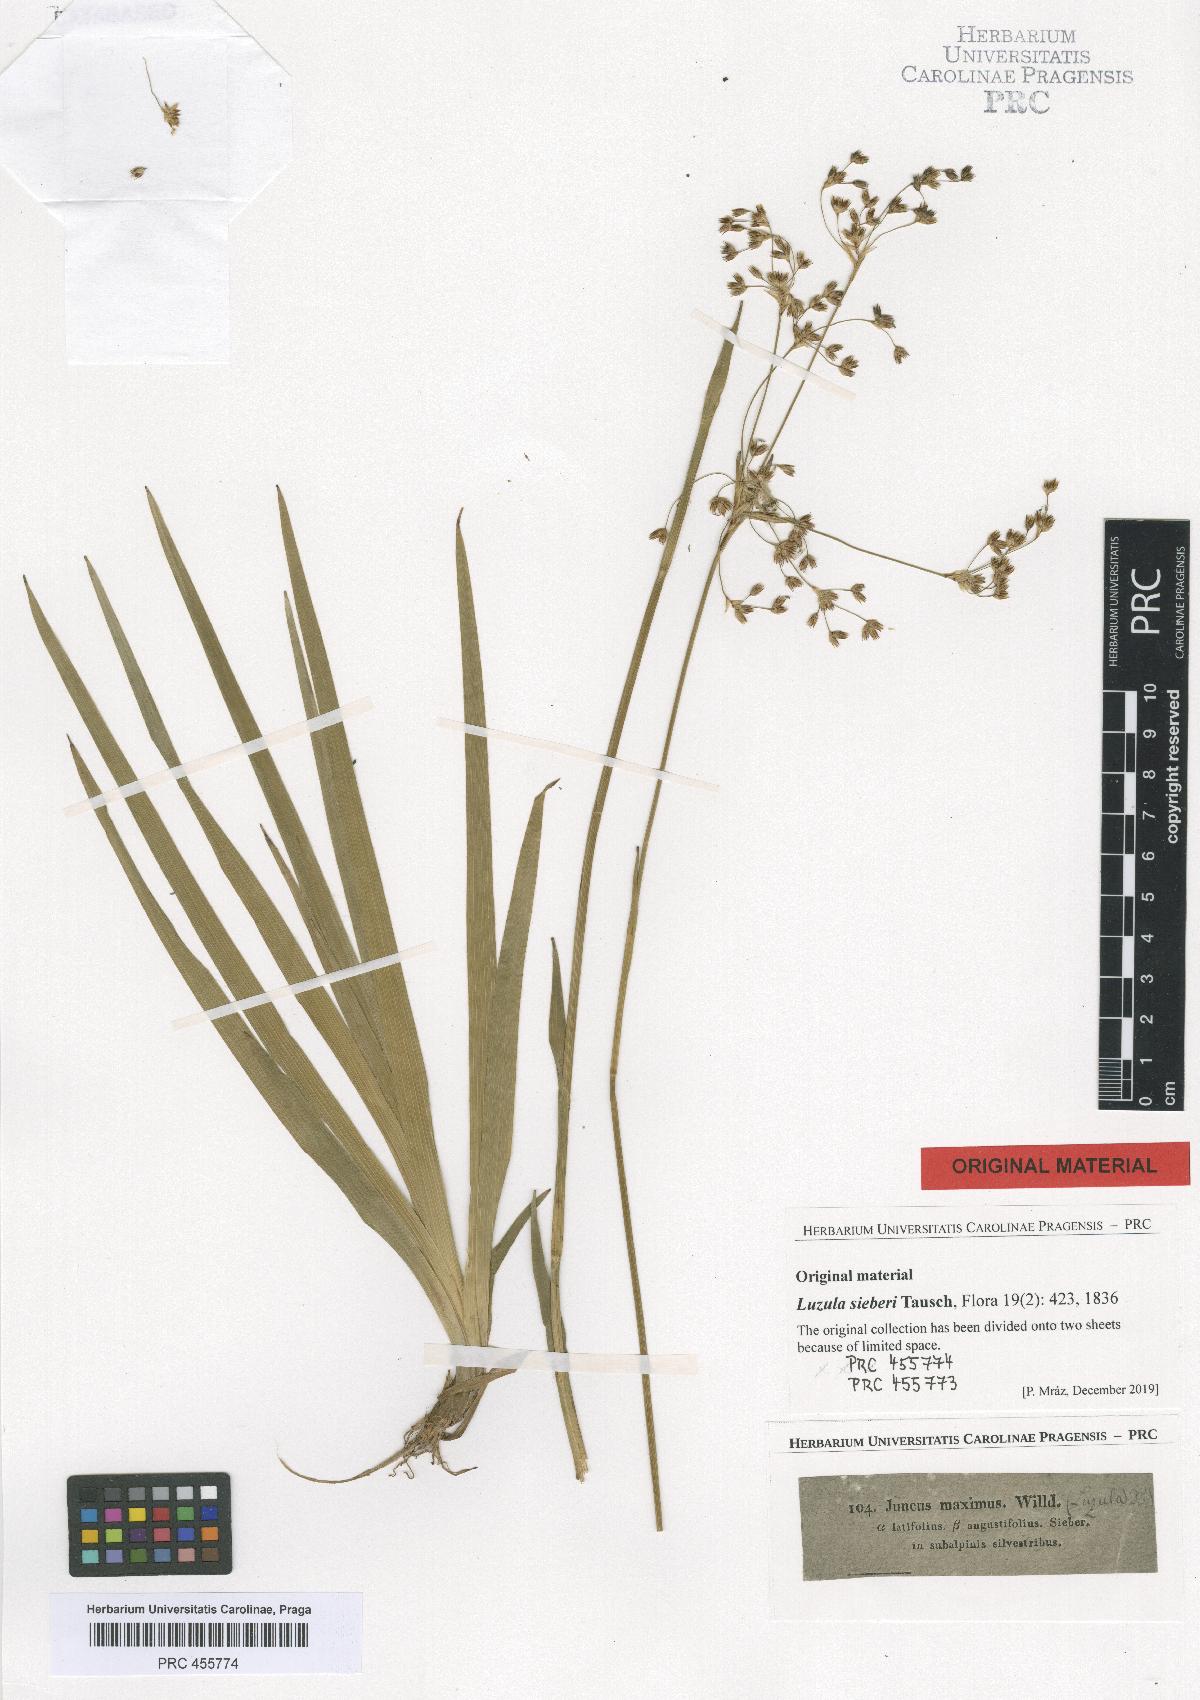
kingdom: Plantae
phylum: Tracheophyta
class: Liliopsida
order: Poales
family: Juncaceae
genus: Luzula
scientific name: Luzula sylvatica
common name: Great wood-rush
